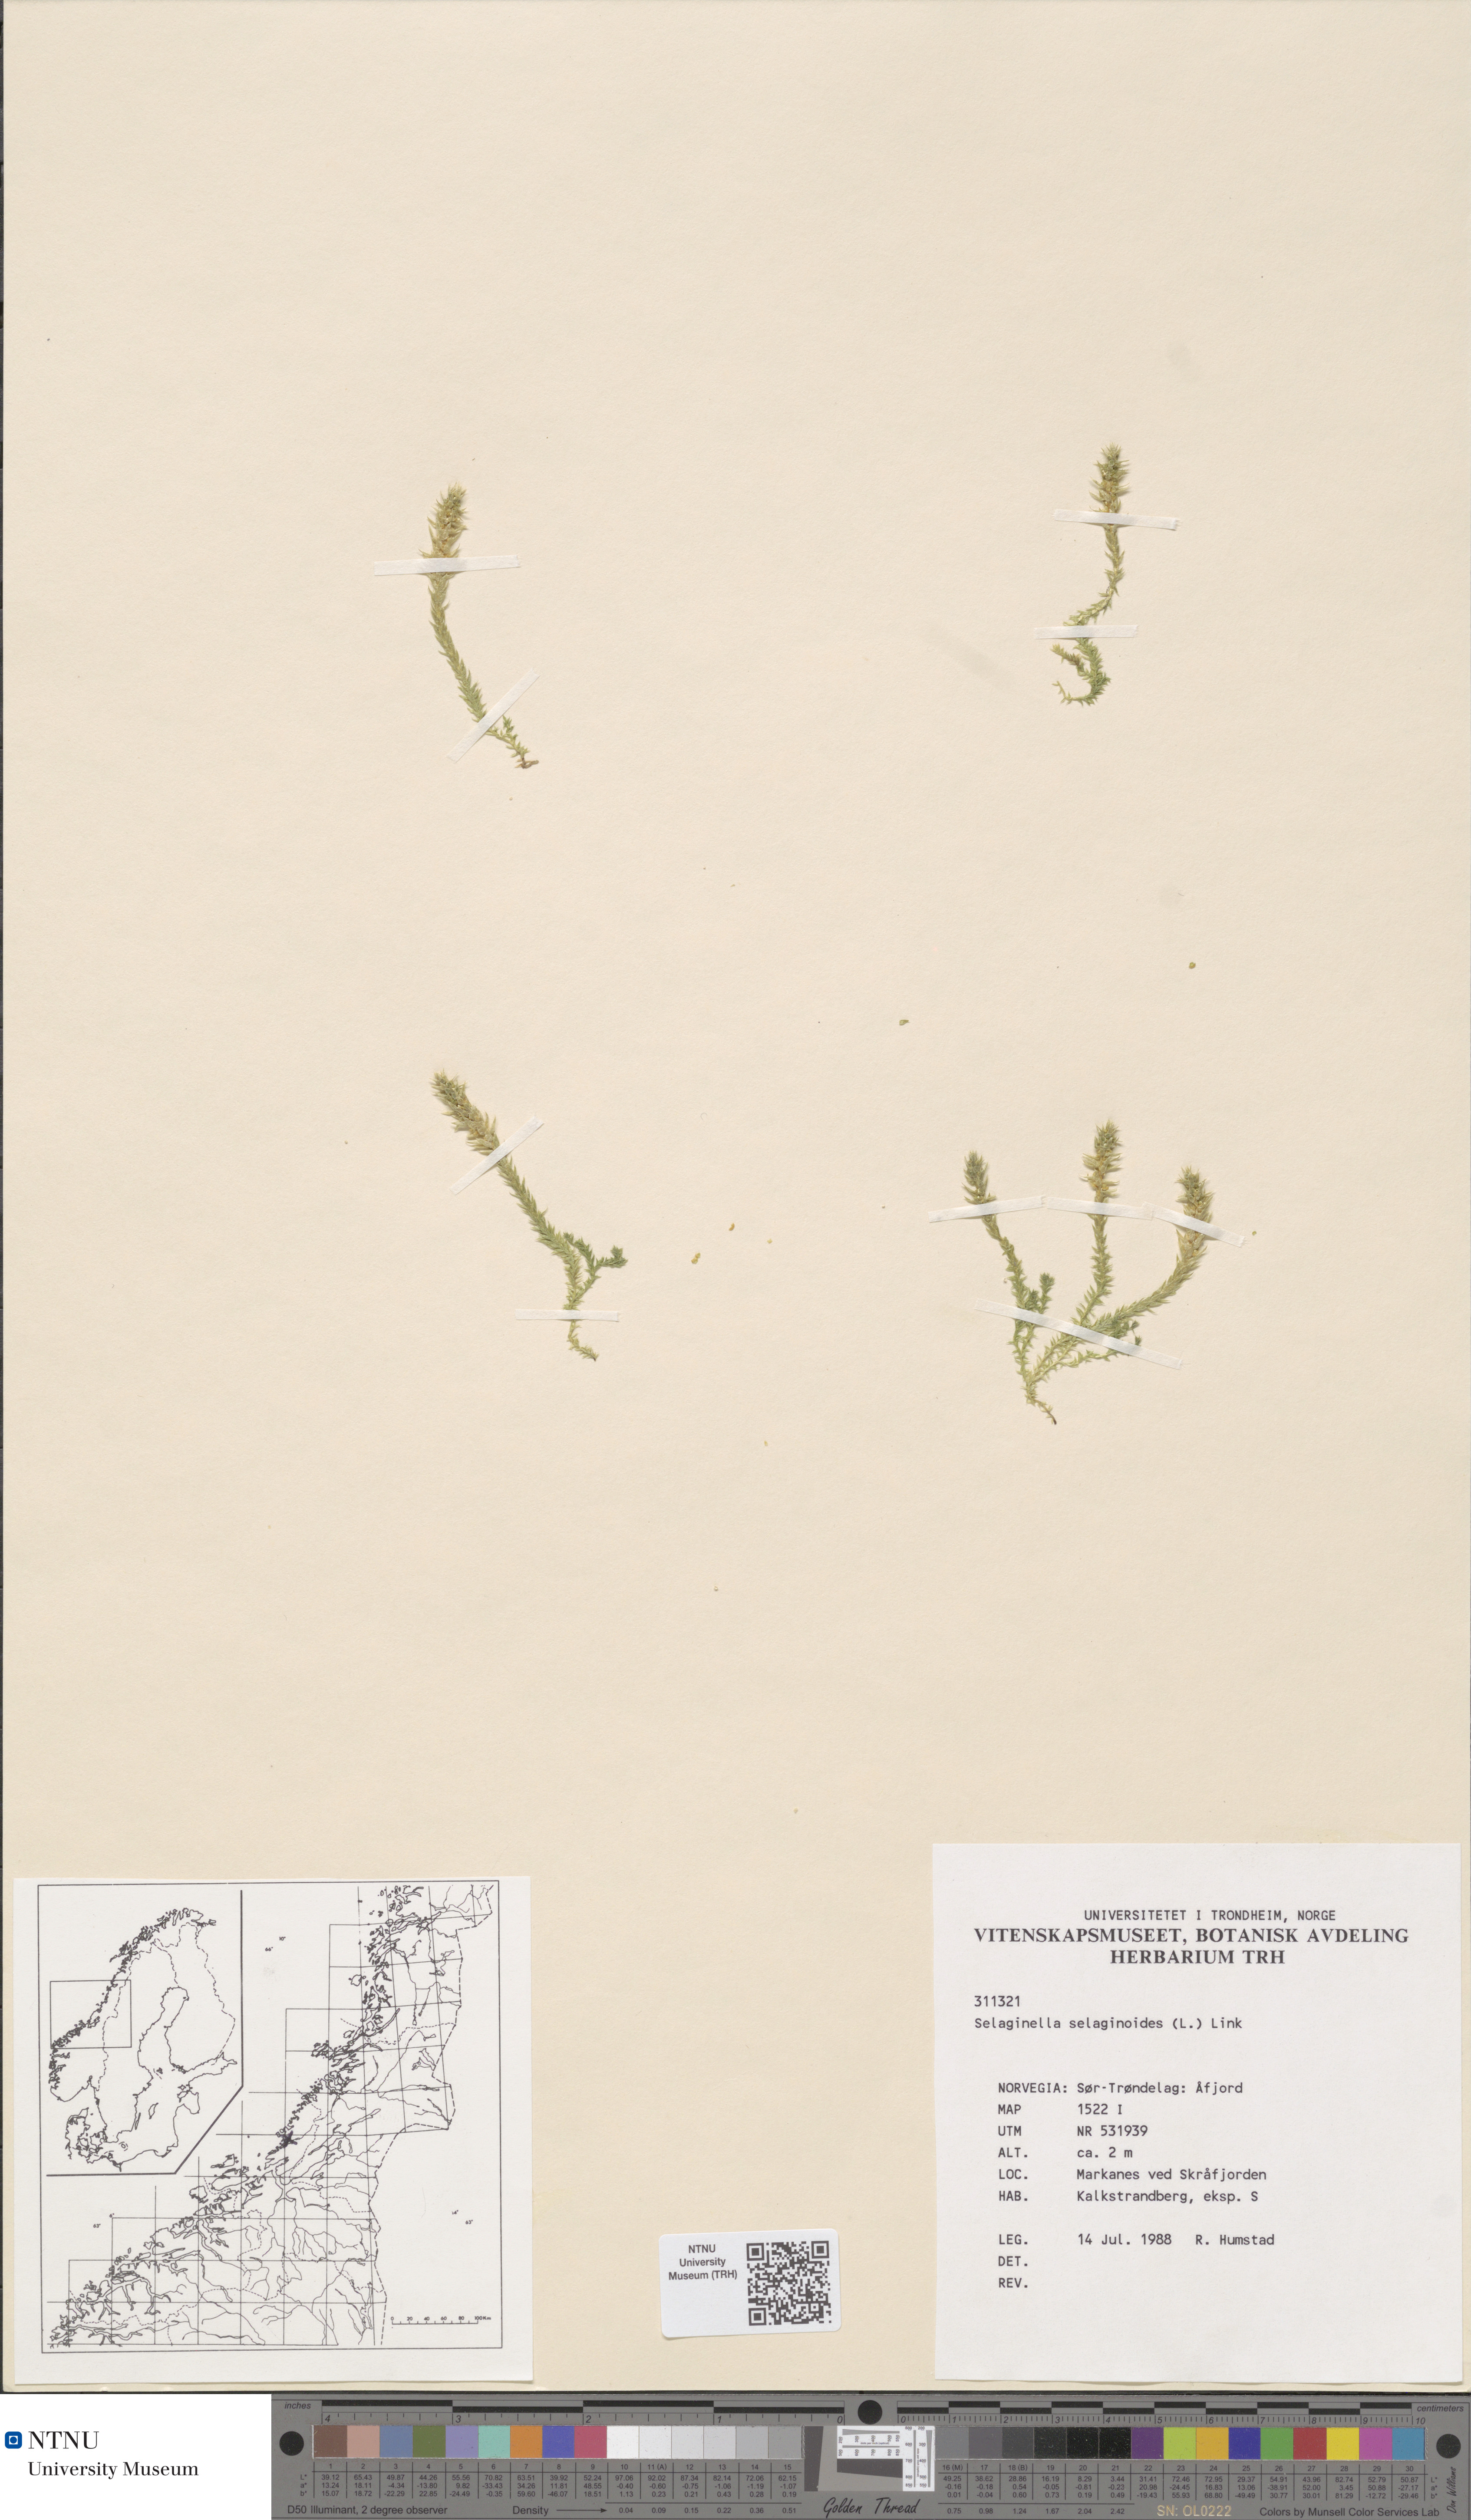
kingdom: Plantae
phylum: Tracheophyta
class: Lycopodiopsida
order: Selaginellales
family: Selaginellaceae
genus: Selaginella
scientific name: Selaginella selaginoides
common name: Prickly mountain-moss
